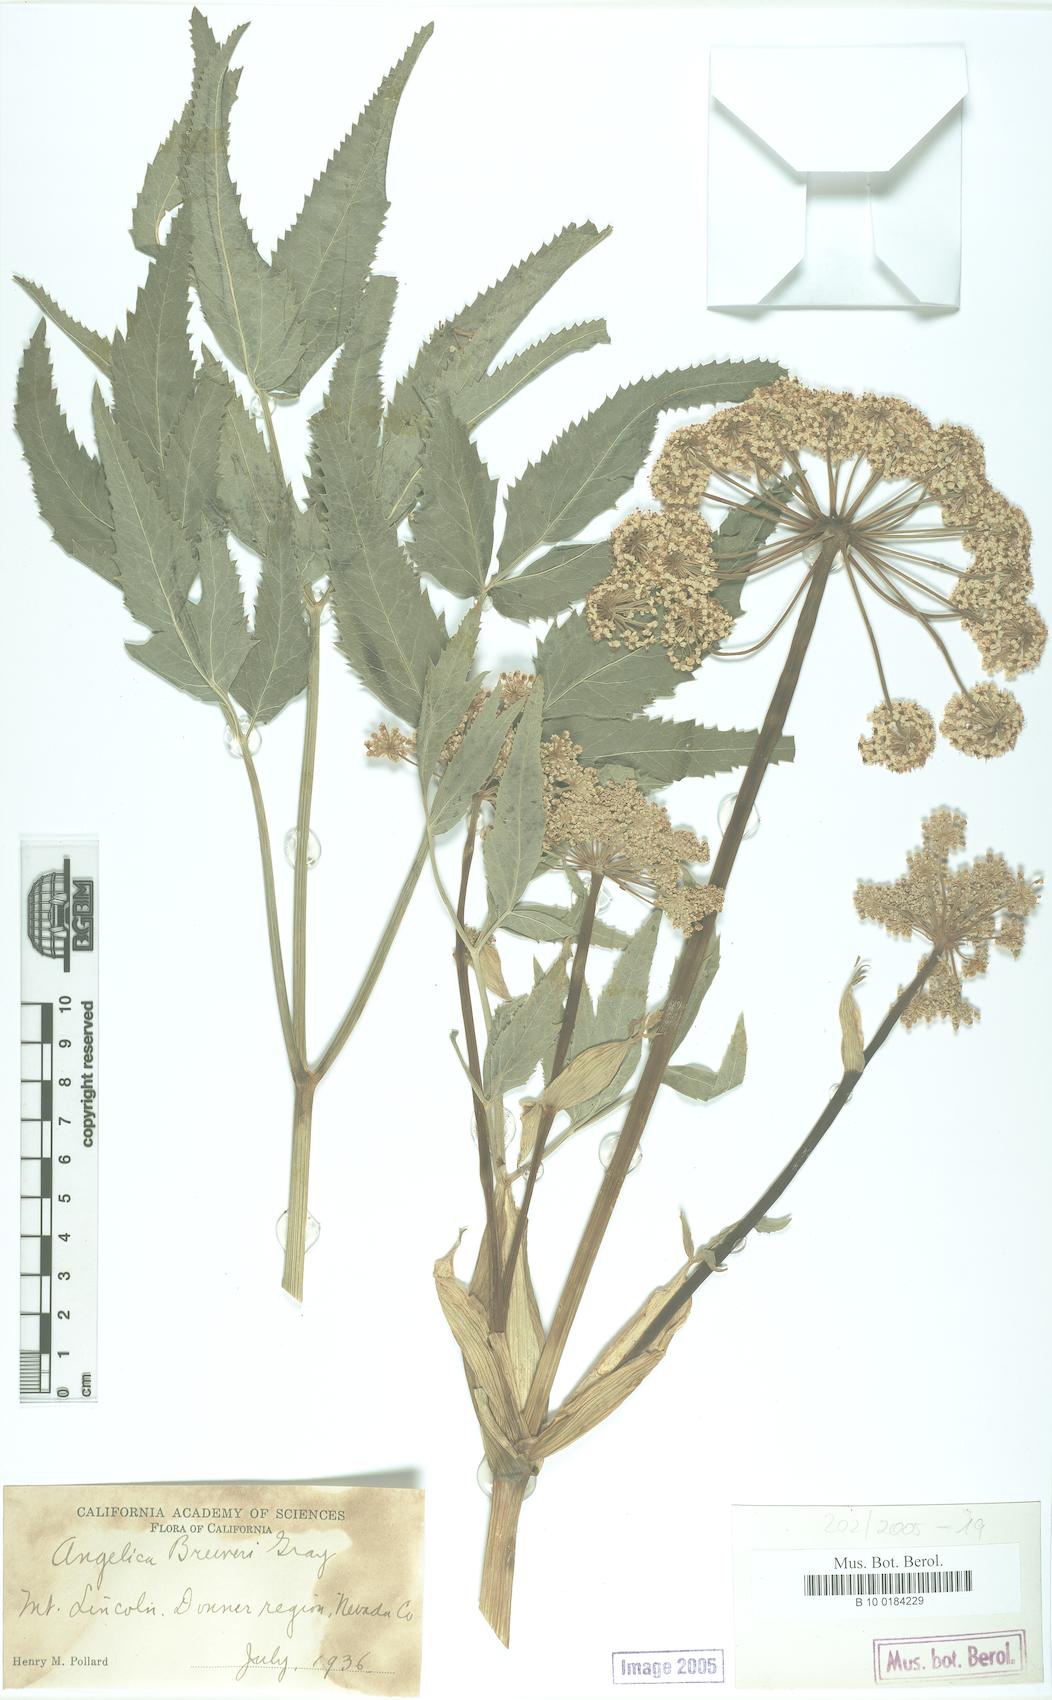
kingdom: Plantae
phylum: Tracheophyta
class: Magnoliopsida
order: Apiales
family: Apiaceae
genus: Angelica
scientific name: Angelica breweri
